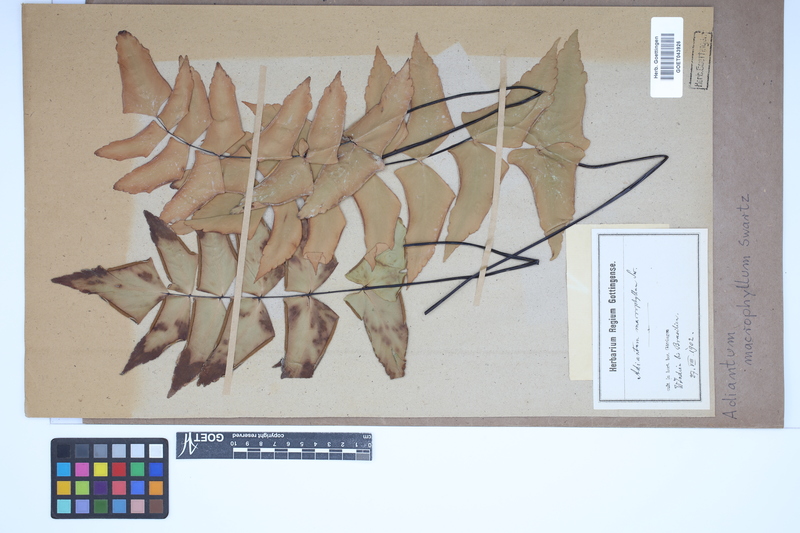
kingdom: Plantae
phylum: Tracheophyta
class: Polypodiopsida
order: Polypodiales
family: Pteridaceae
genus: Adiantum
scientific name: Adiantum macrophyllum
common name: Largeleaf maidenhair
